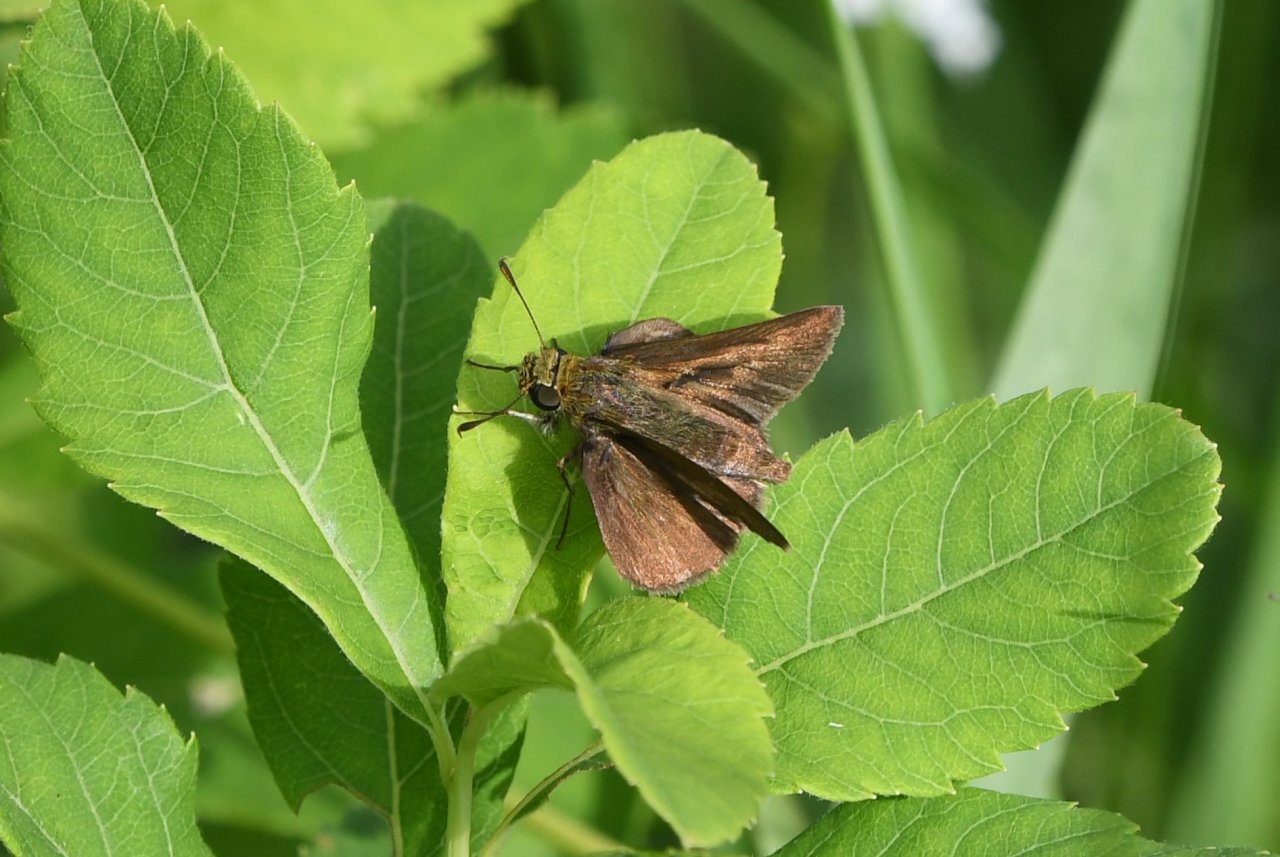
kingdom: Animalia
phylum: Arthropoda
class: Insecta
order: Lepidoptera
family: Hesperiidae
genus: Euphyes
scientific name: Euphyes vestris
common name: Dun Skipper
